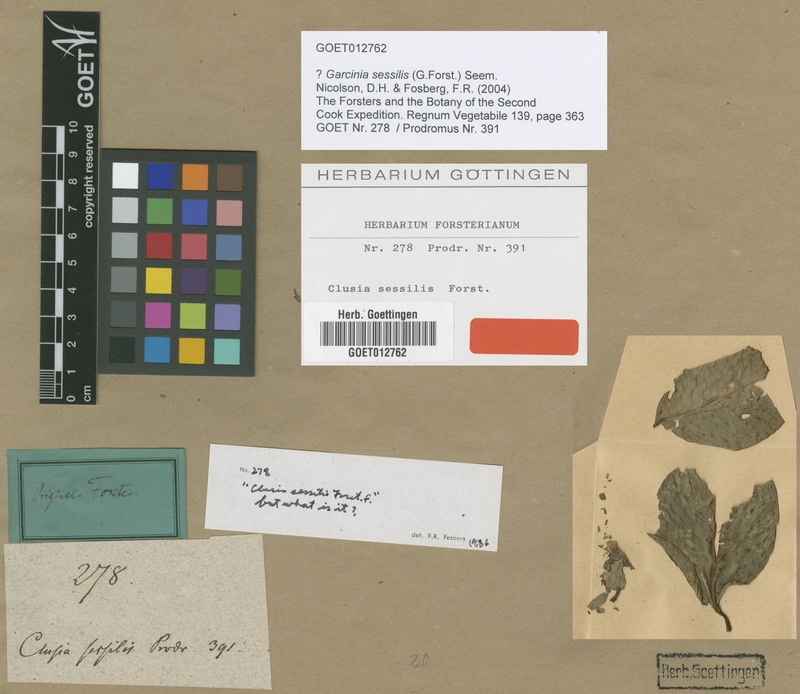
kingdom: Plantae
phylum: Tracheophyta
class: Magnoliopsida
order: Malpighiales
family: Clusiaceae
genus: Garcinia
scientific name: Garcinia sessilis
